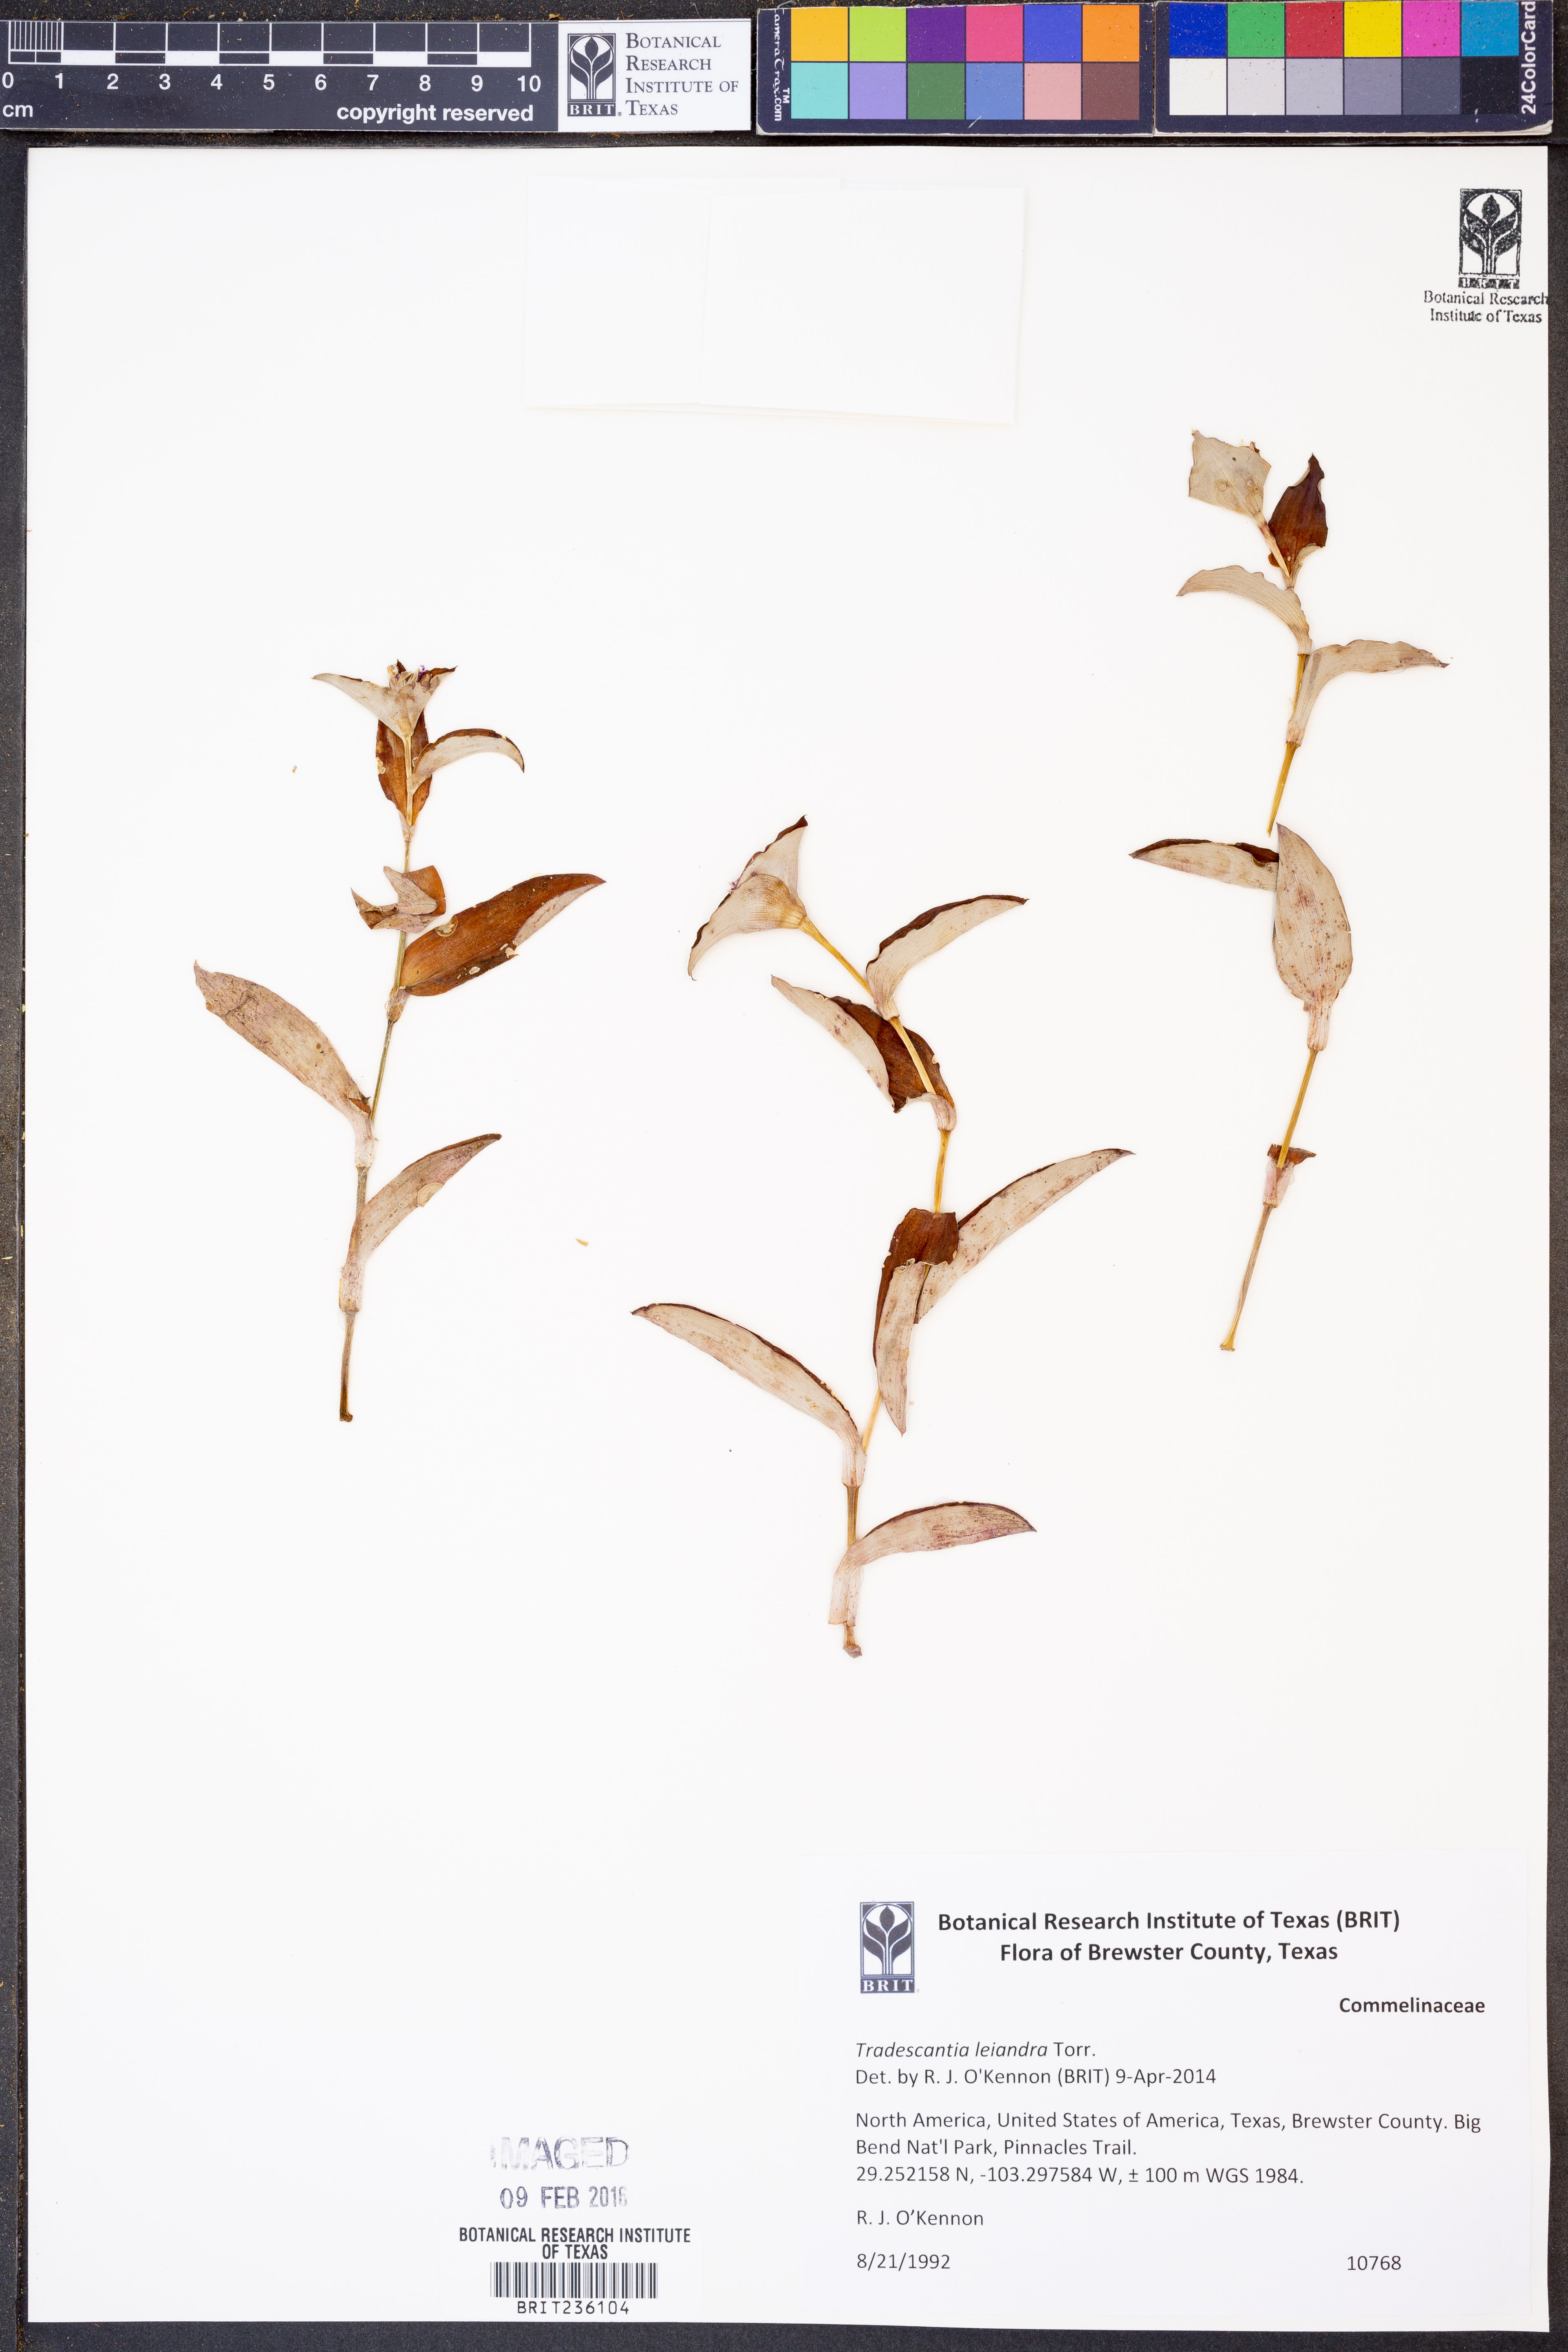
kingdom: Plantae
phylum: Tracheophyta
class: Liliopsida
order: Commelinales
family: Commelinaceae
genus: Tradescantia
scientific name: Tradescantia leiandra
